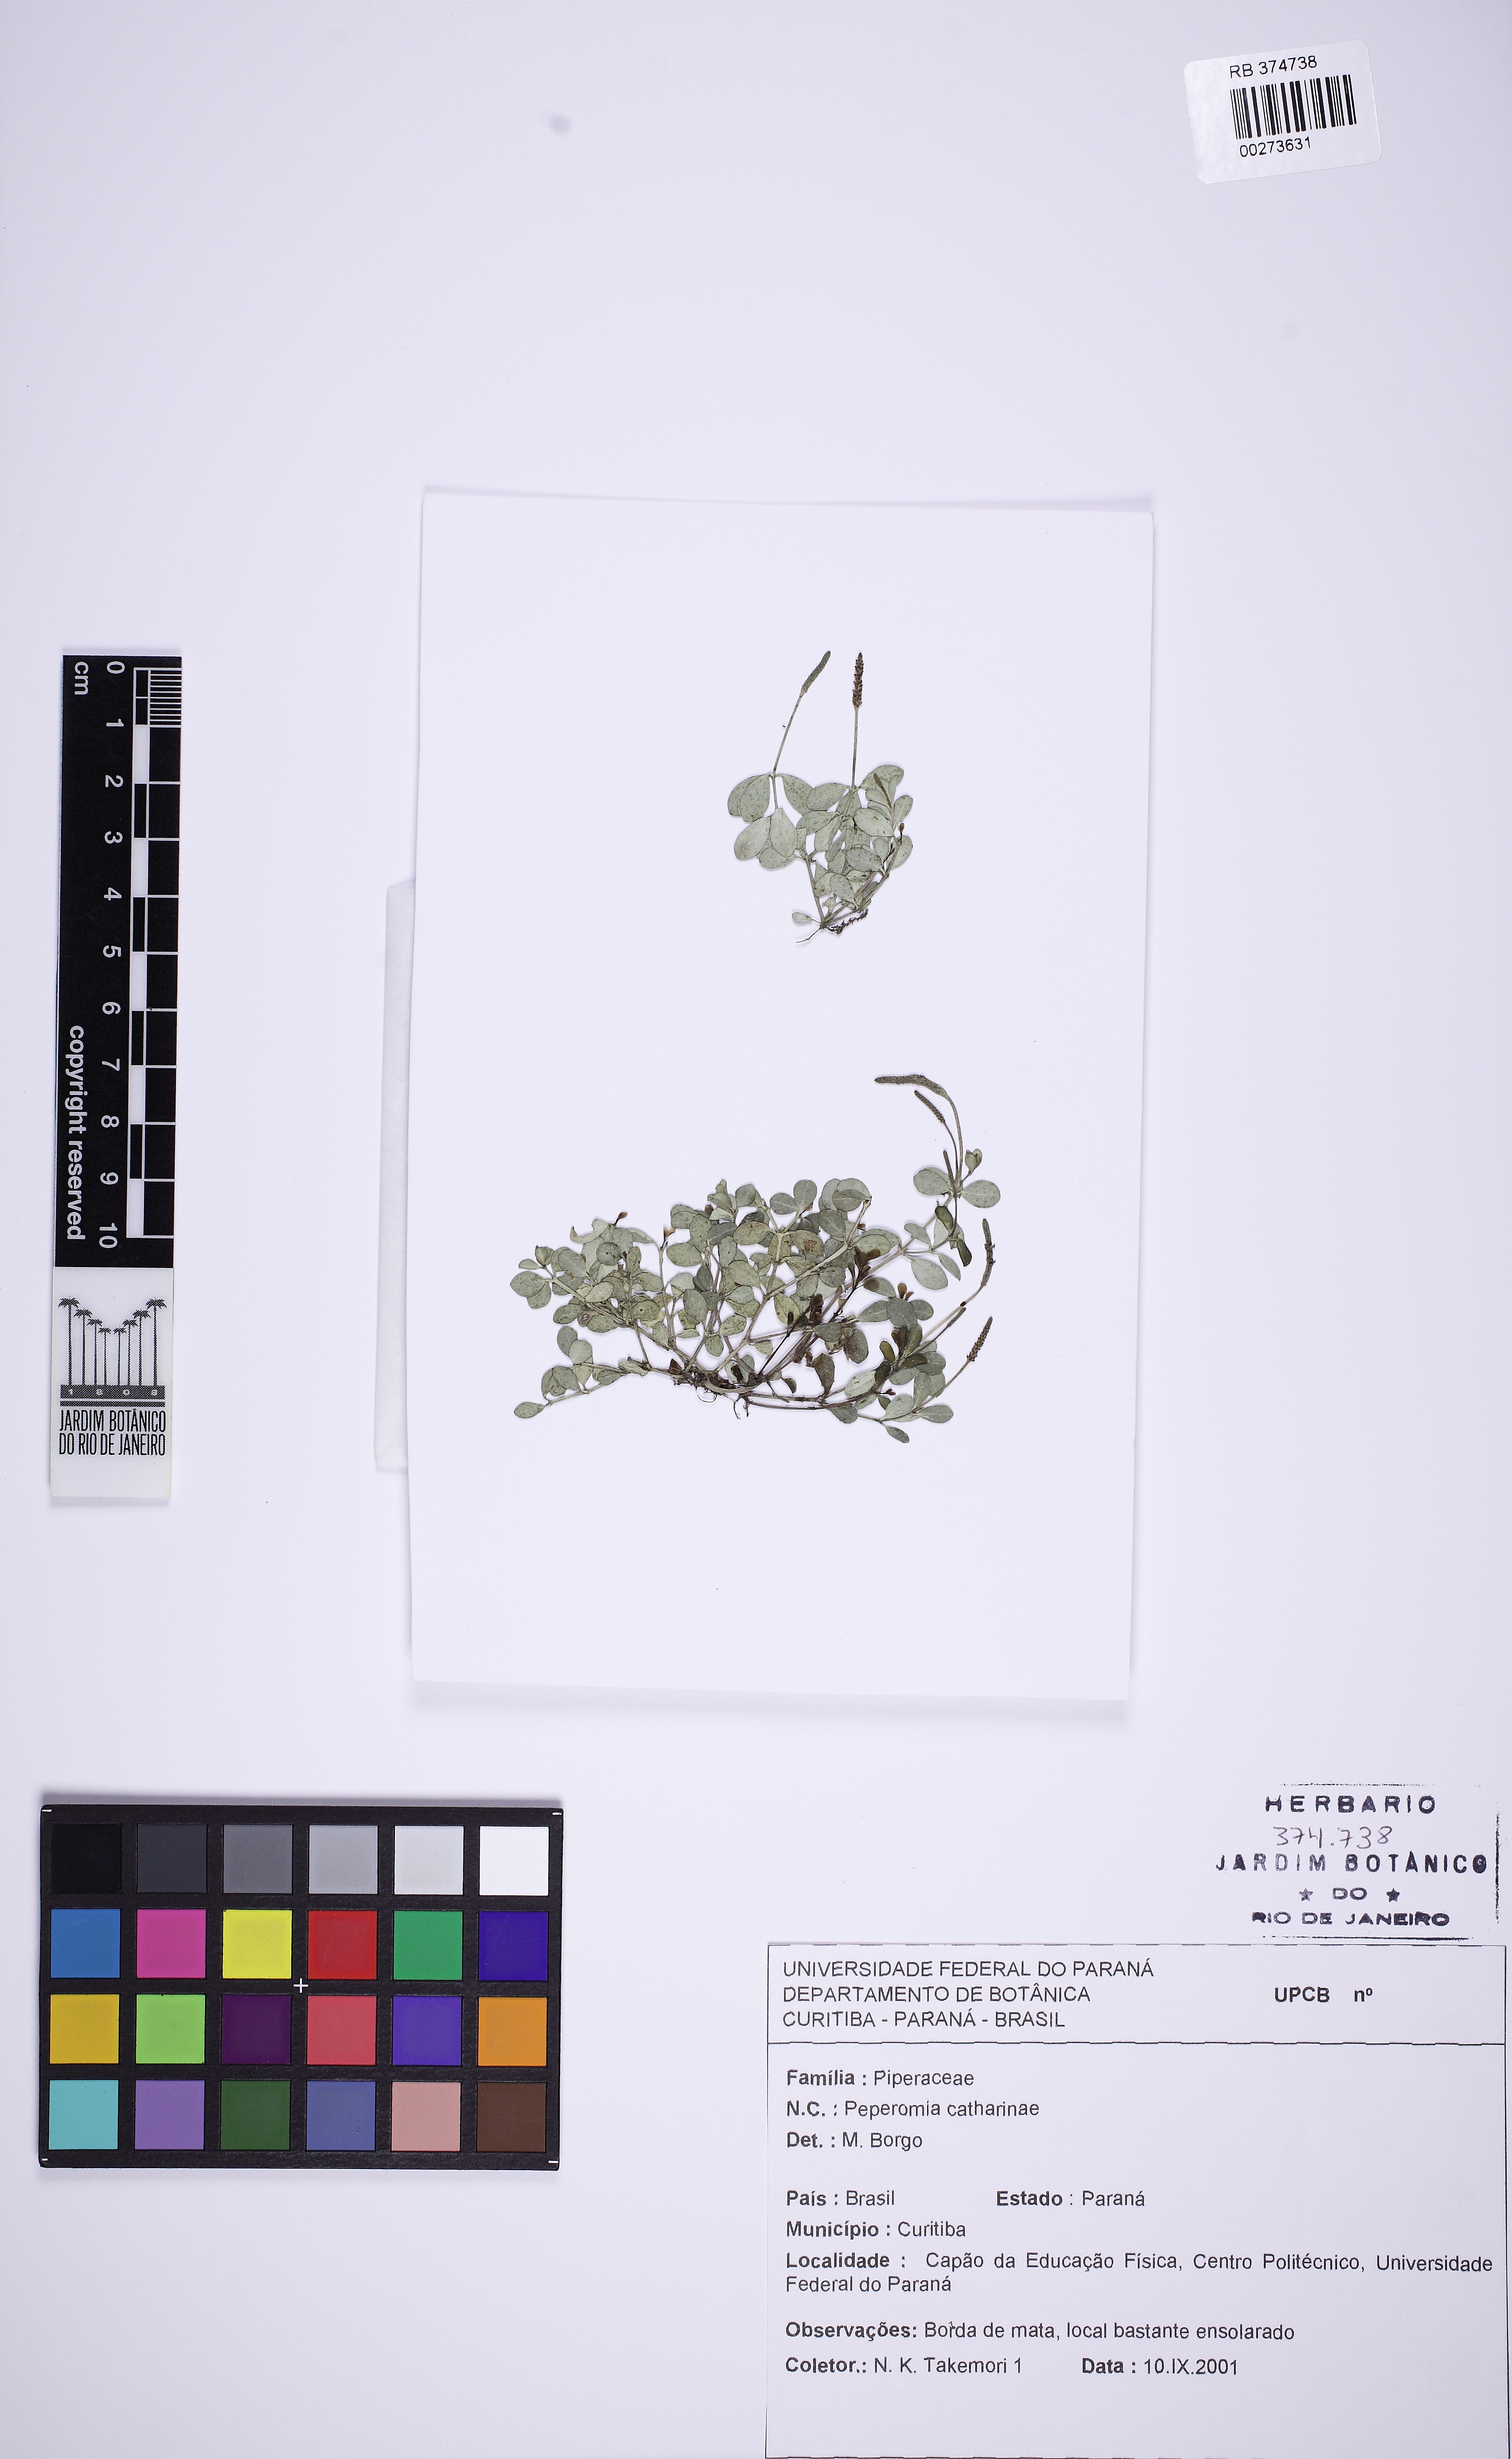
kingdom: Plantae
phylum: Tracheophyta
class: Magnoliopsida
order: Piperales
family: Piperaceae
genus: Peperomia
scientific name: Peperomia catharinae
